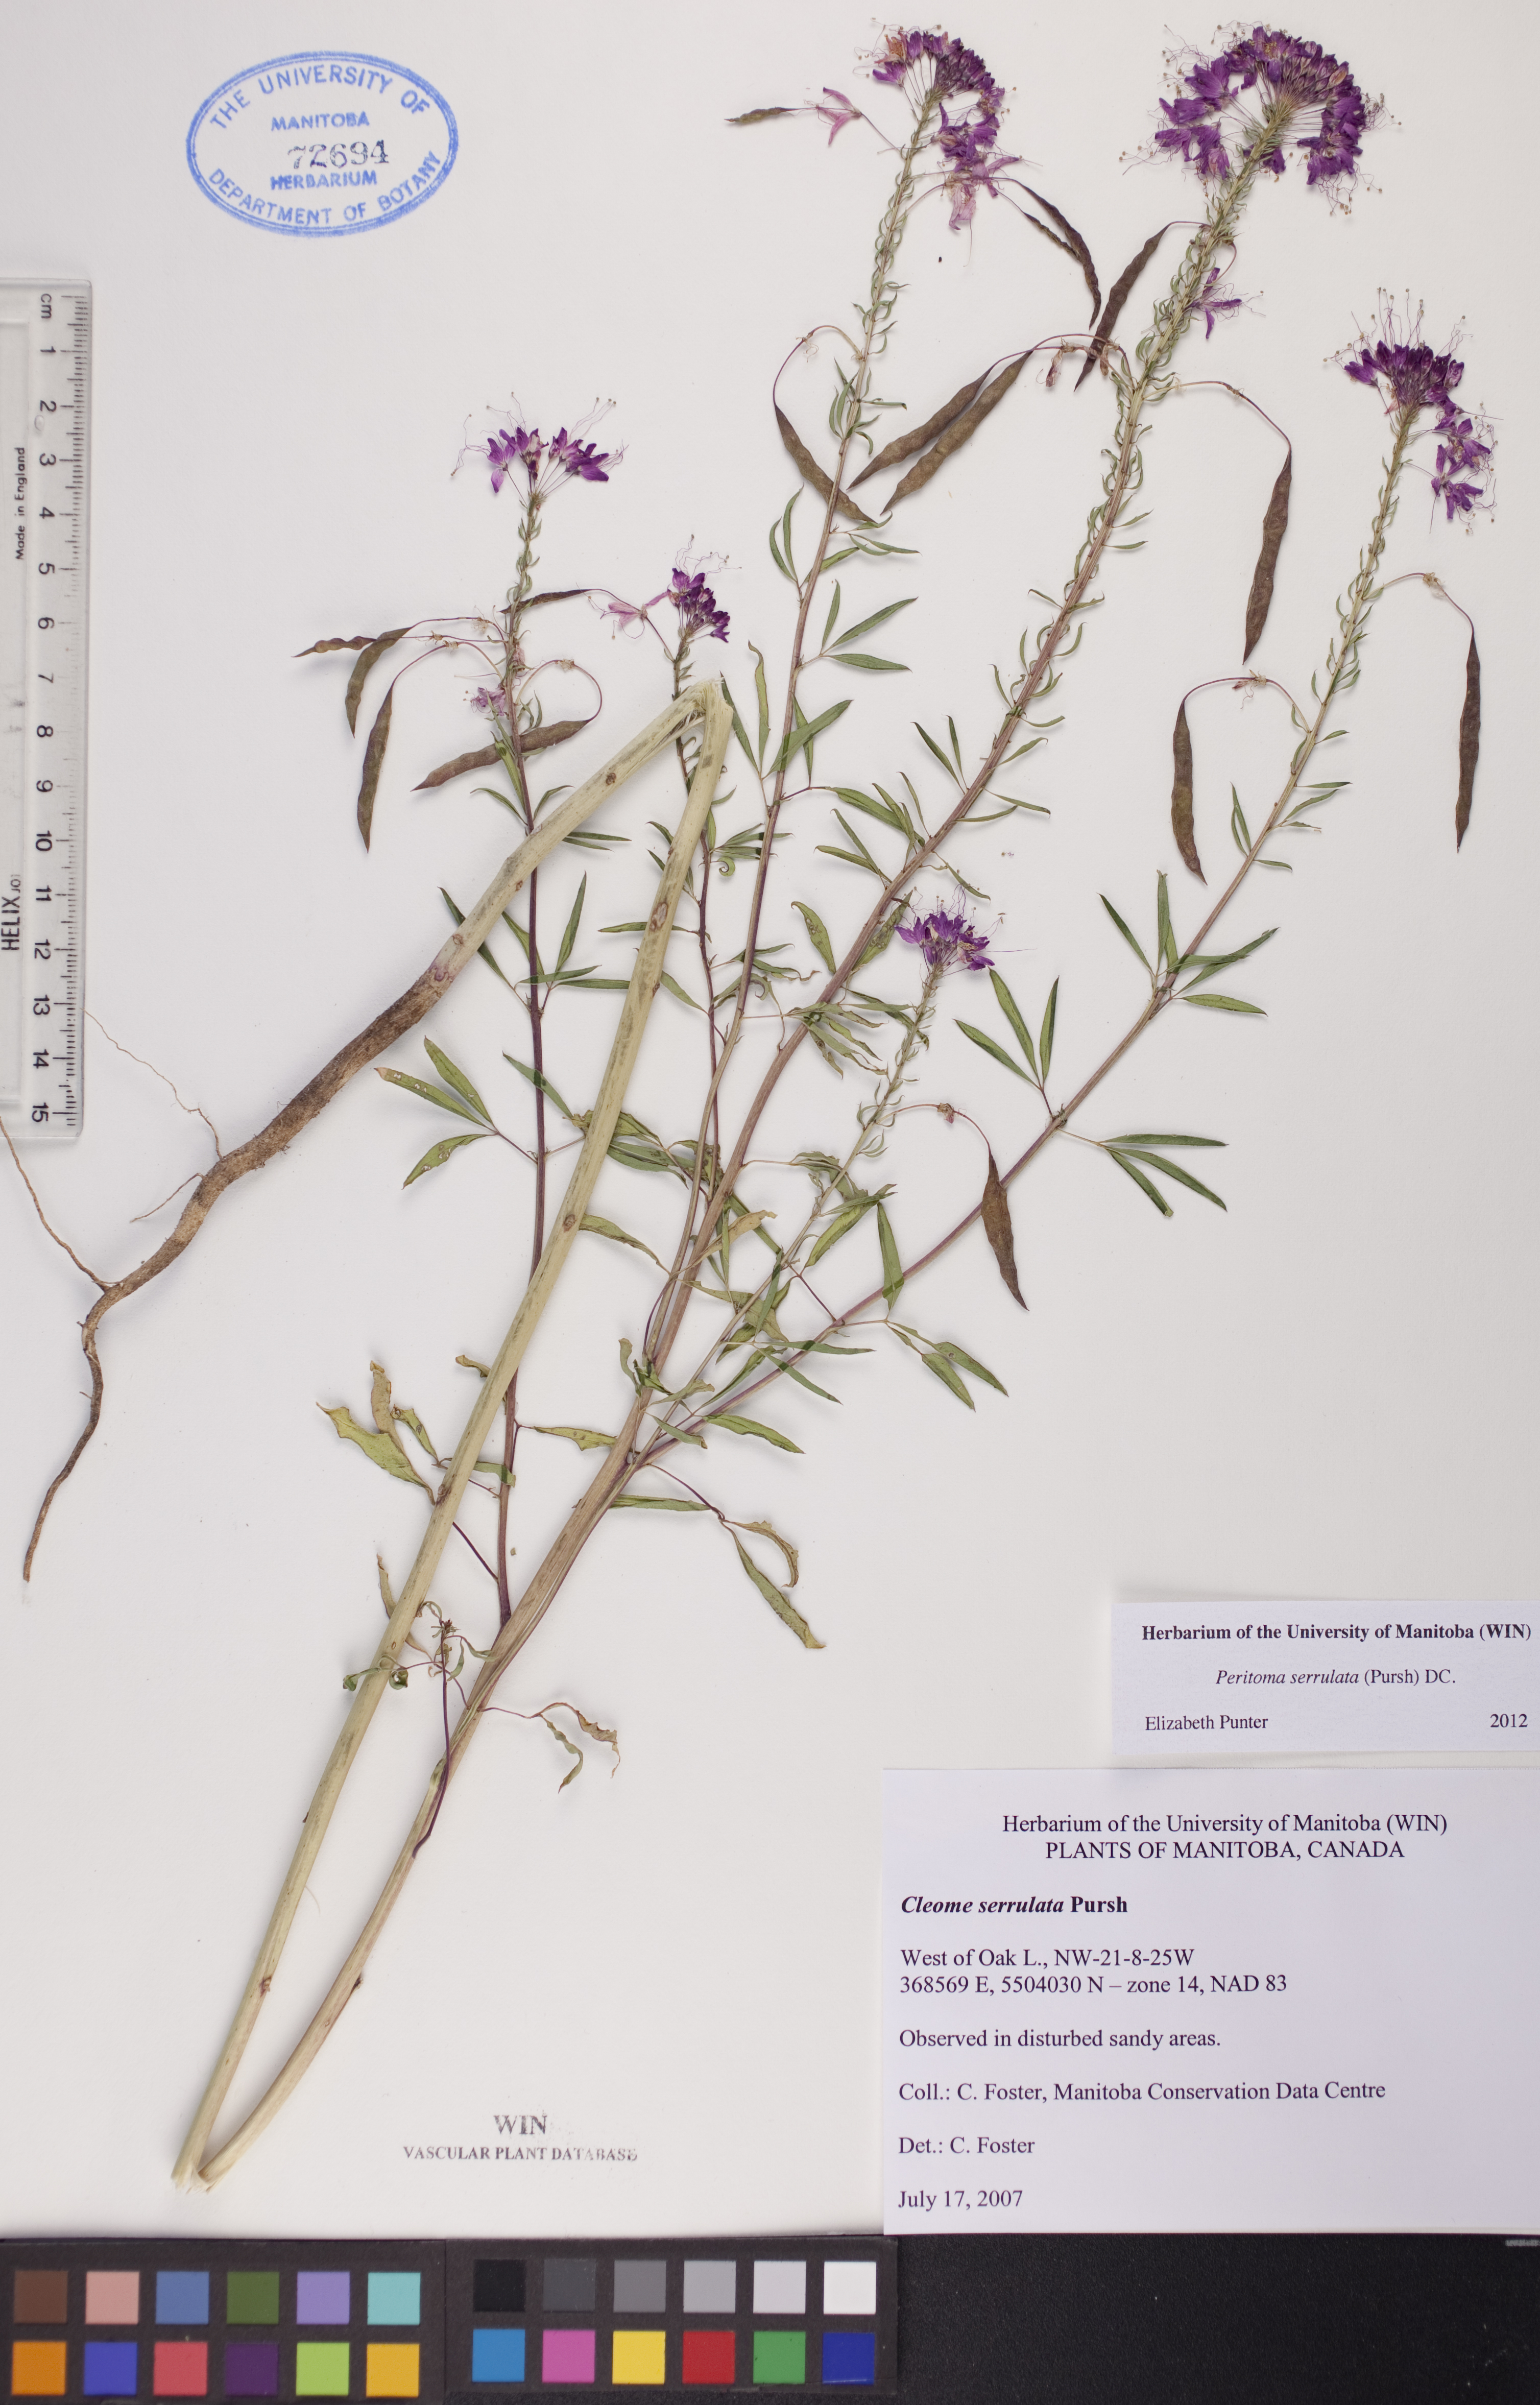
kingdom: Plantae
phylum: Tracheophyta
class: Magnoliopsida
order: Brassicales
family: Cleomaceae
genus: Cleomella
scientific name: Cleomella serrulata
